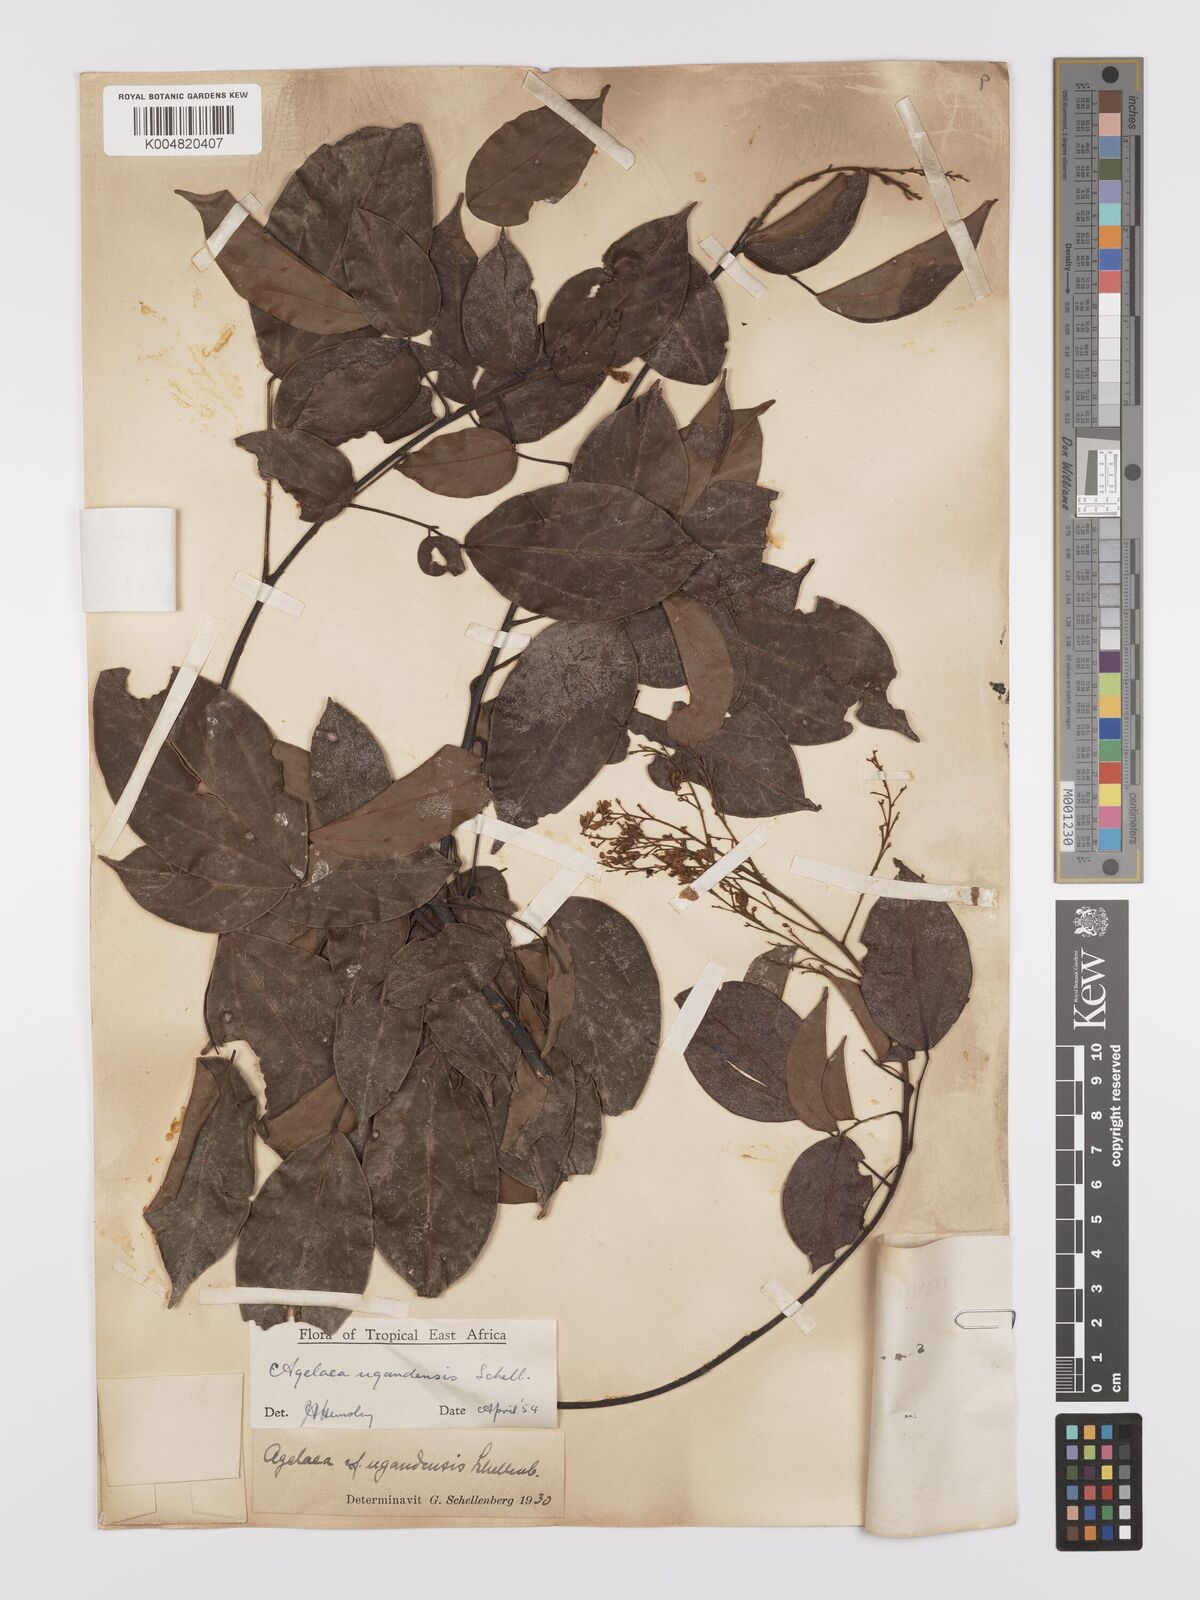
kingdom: Plantae
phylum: Tracheophyta
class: Magnoliopsida
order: Oxalidales
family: Connaraceae
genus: Agelaea
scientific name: Agelaea pentagyna
